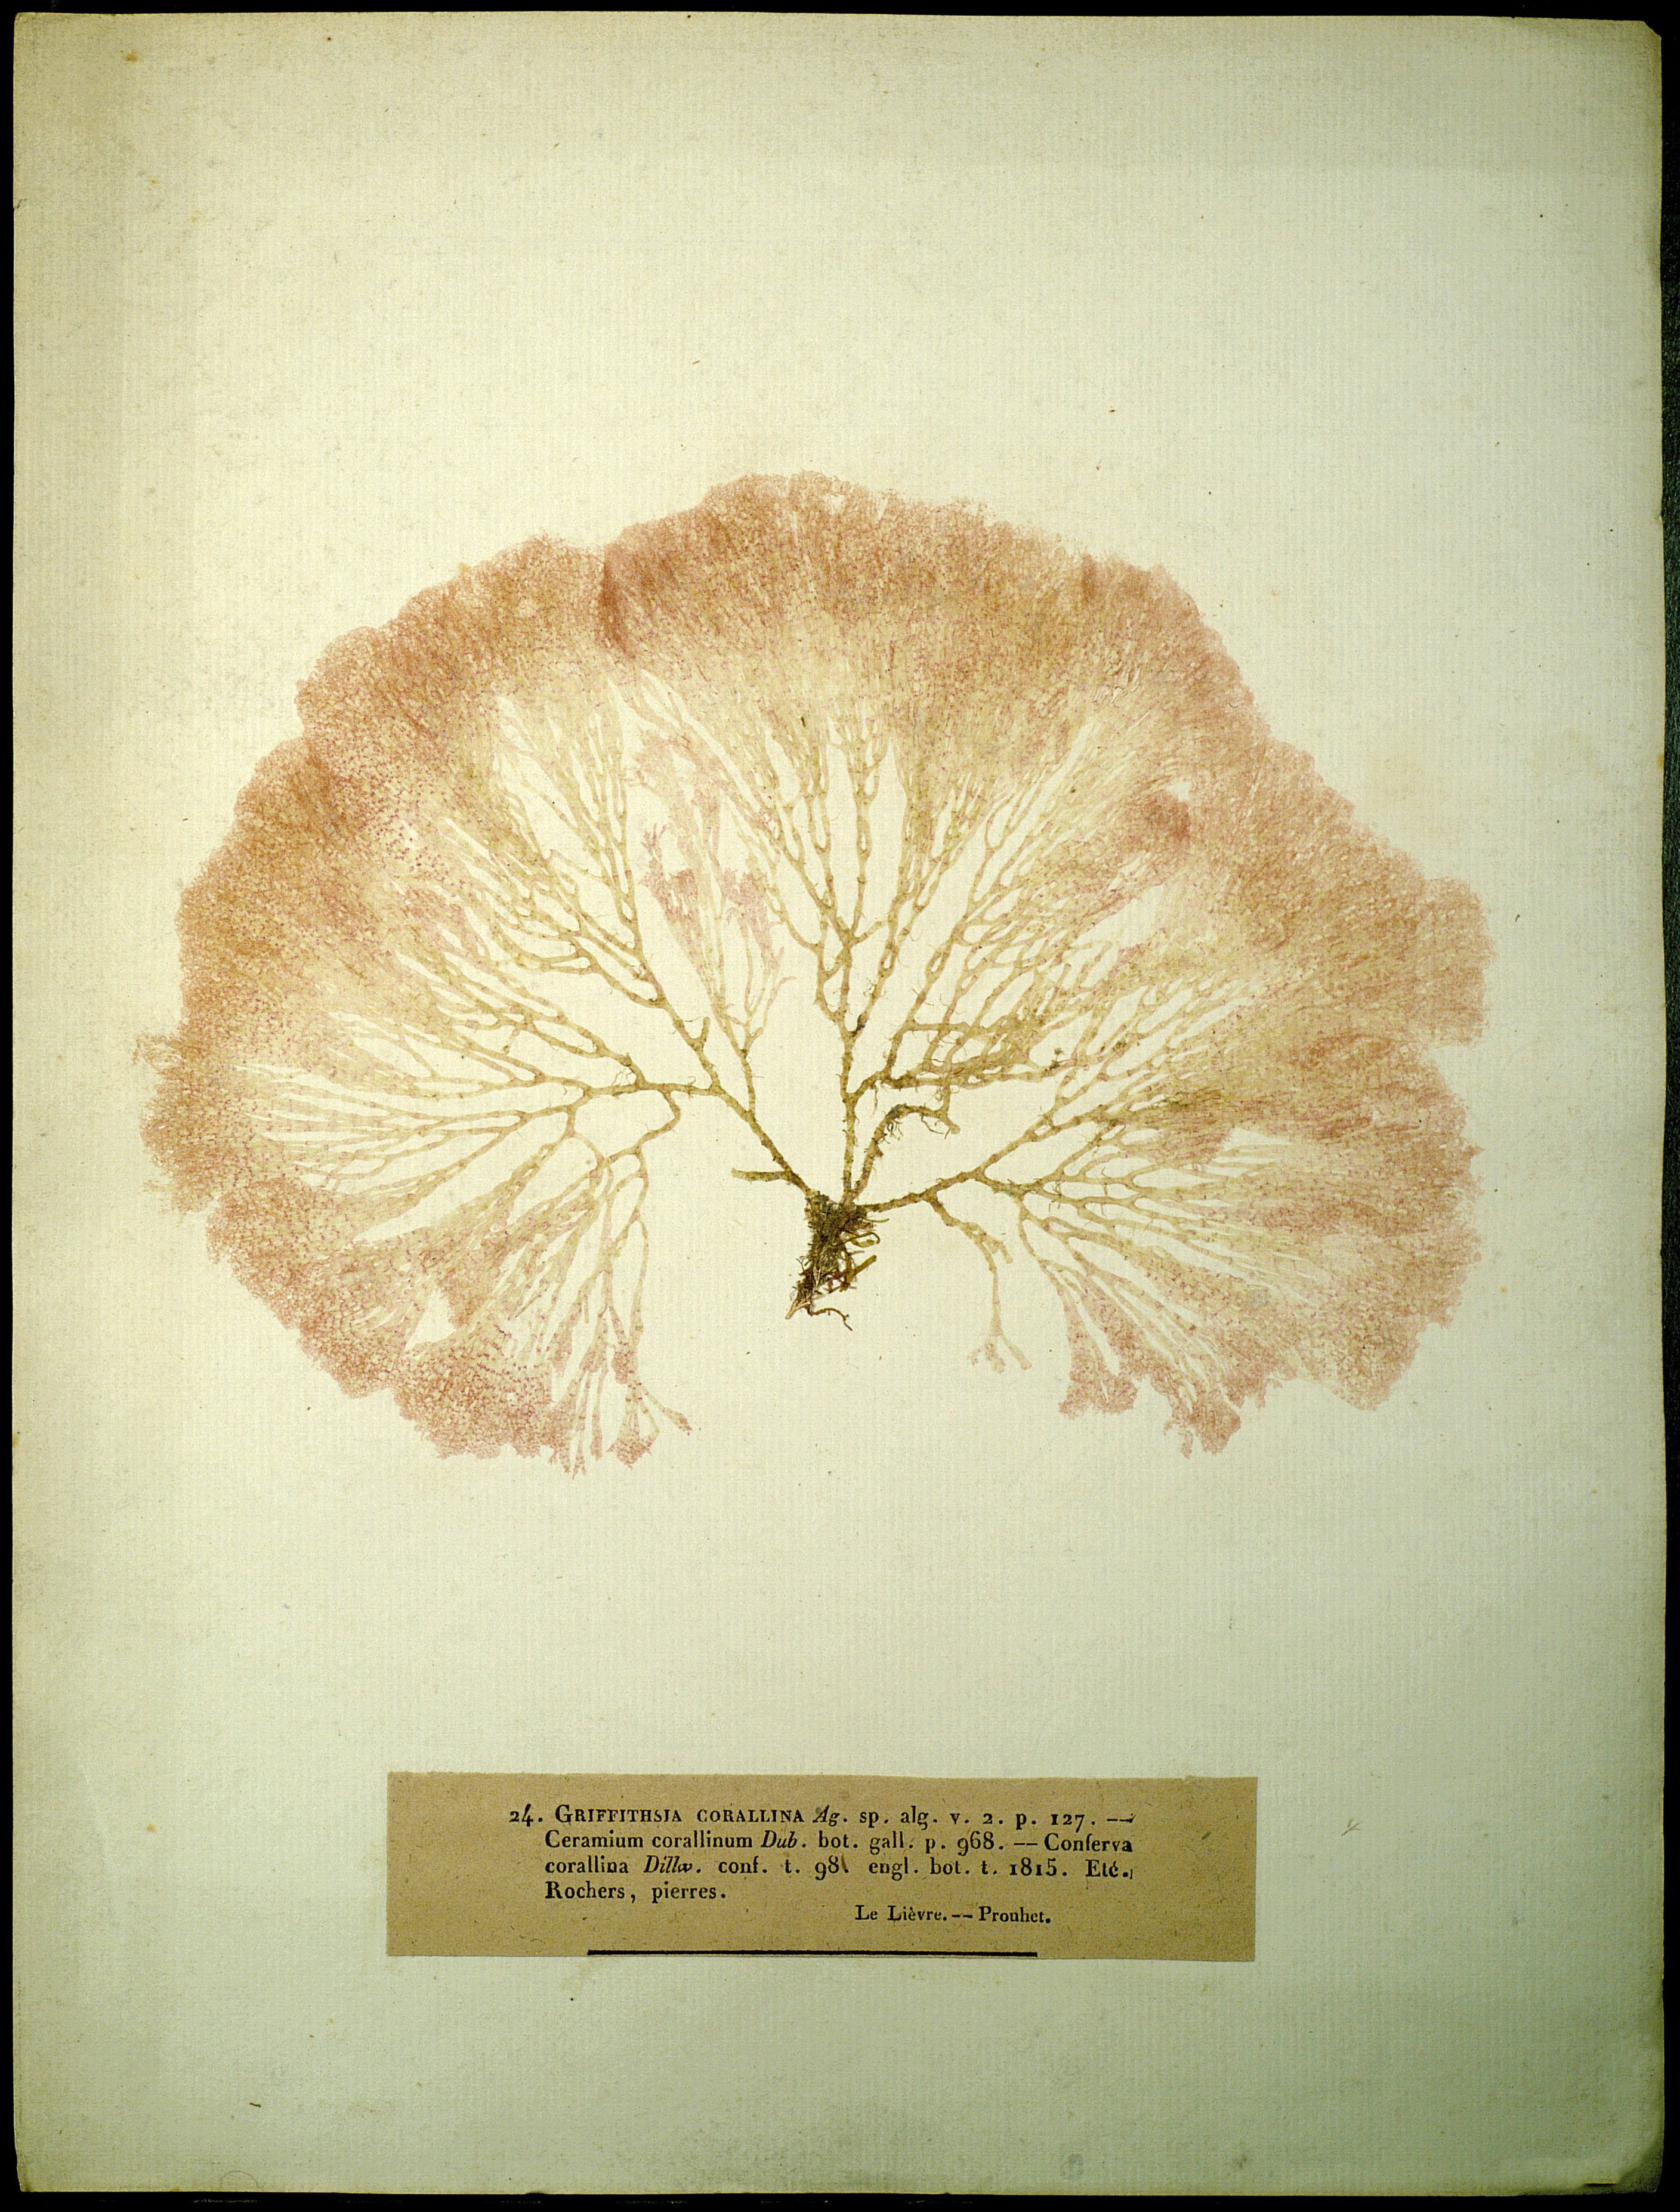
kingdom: Plantae
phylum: Rhodophyta
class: Florideophyceae
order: Ceramiales
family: Wrangeliaceae
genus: Griffithsia
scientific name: Griffithsia corallinoides
